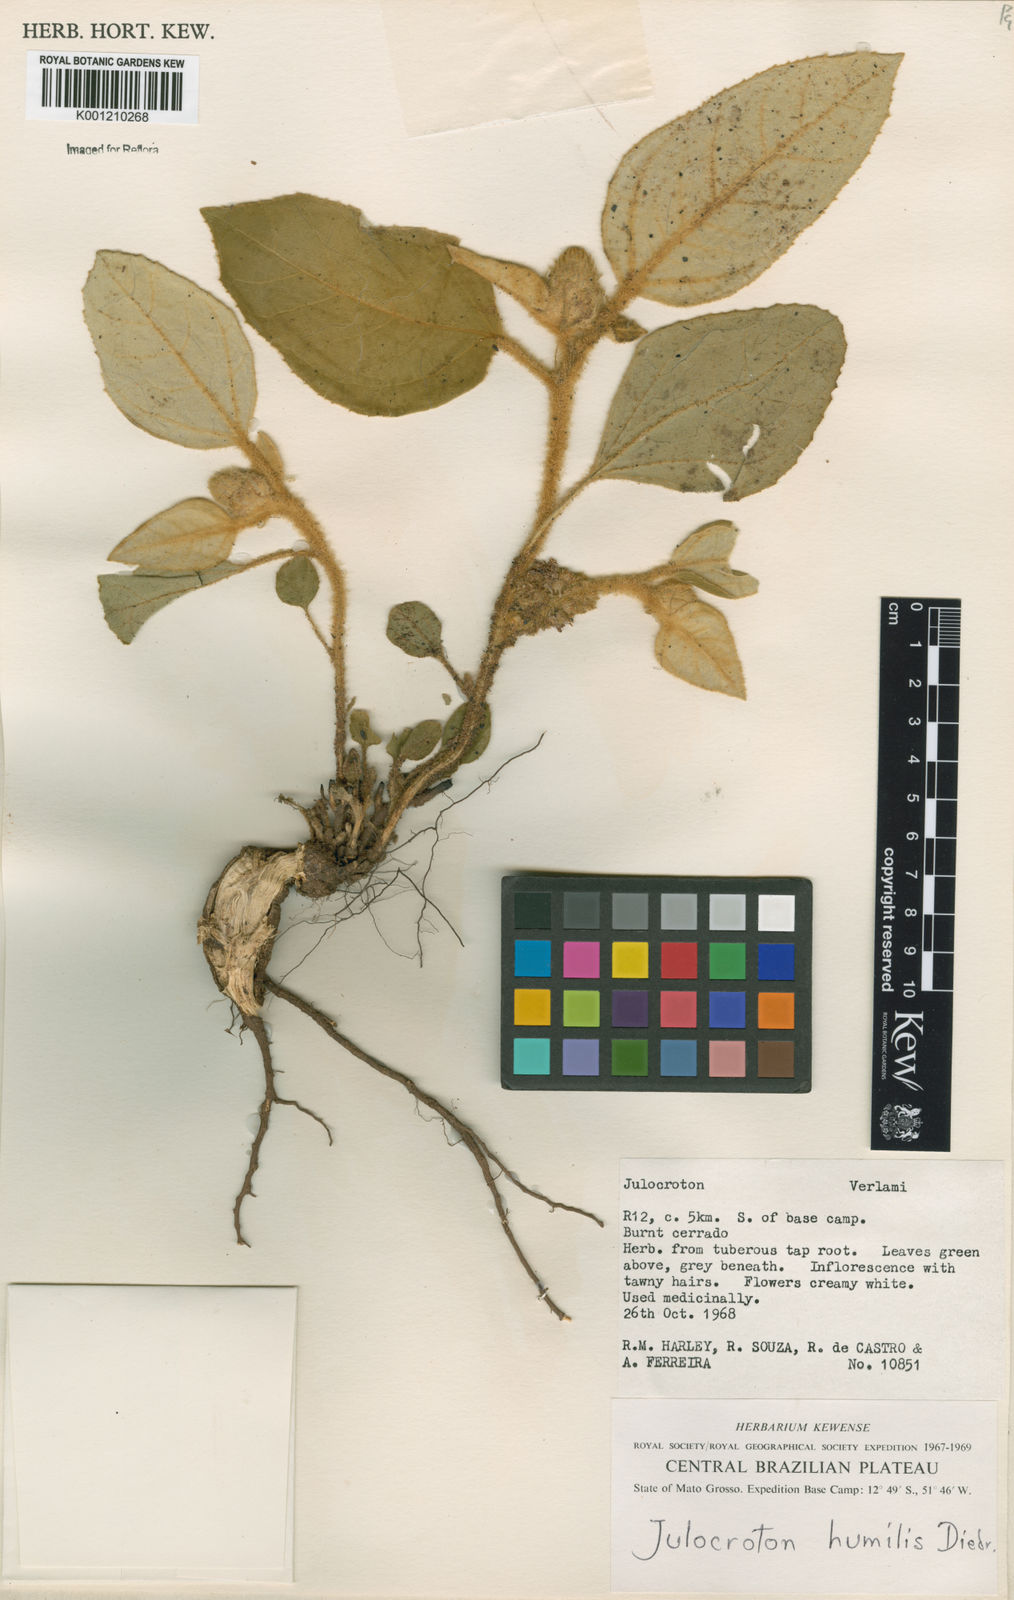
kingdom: Plantae
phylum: Tracheophyta
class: Magnoliopsida
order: Malpighiales
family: Euphorbiaceae
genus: Croton
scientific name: Croton solanaceus
